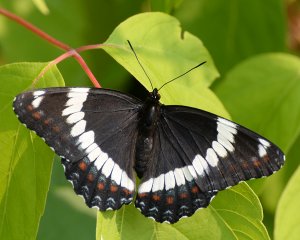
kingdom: Animalia
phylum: Arthropoda
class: Insecta
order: Lepidoptera
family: Nymphalidae
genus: Limenitis
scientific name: Limenitis arthemis
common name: Red-spotted Admiral
